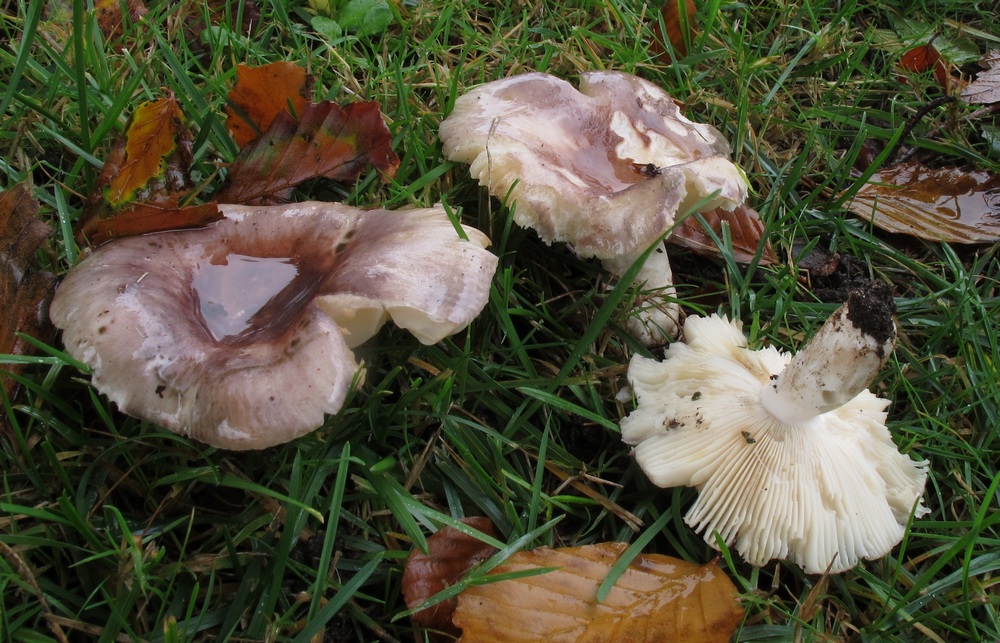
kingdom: Fungi
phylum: Basidiomycota
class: Agaricomycetes
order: Russulales
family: Russulaceae
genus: Russula
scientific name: Russula ionochlora
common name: violetgrøn skørhat
